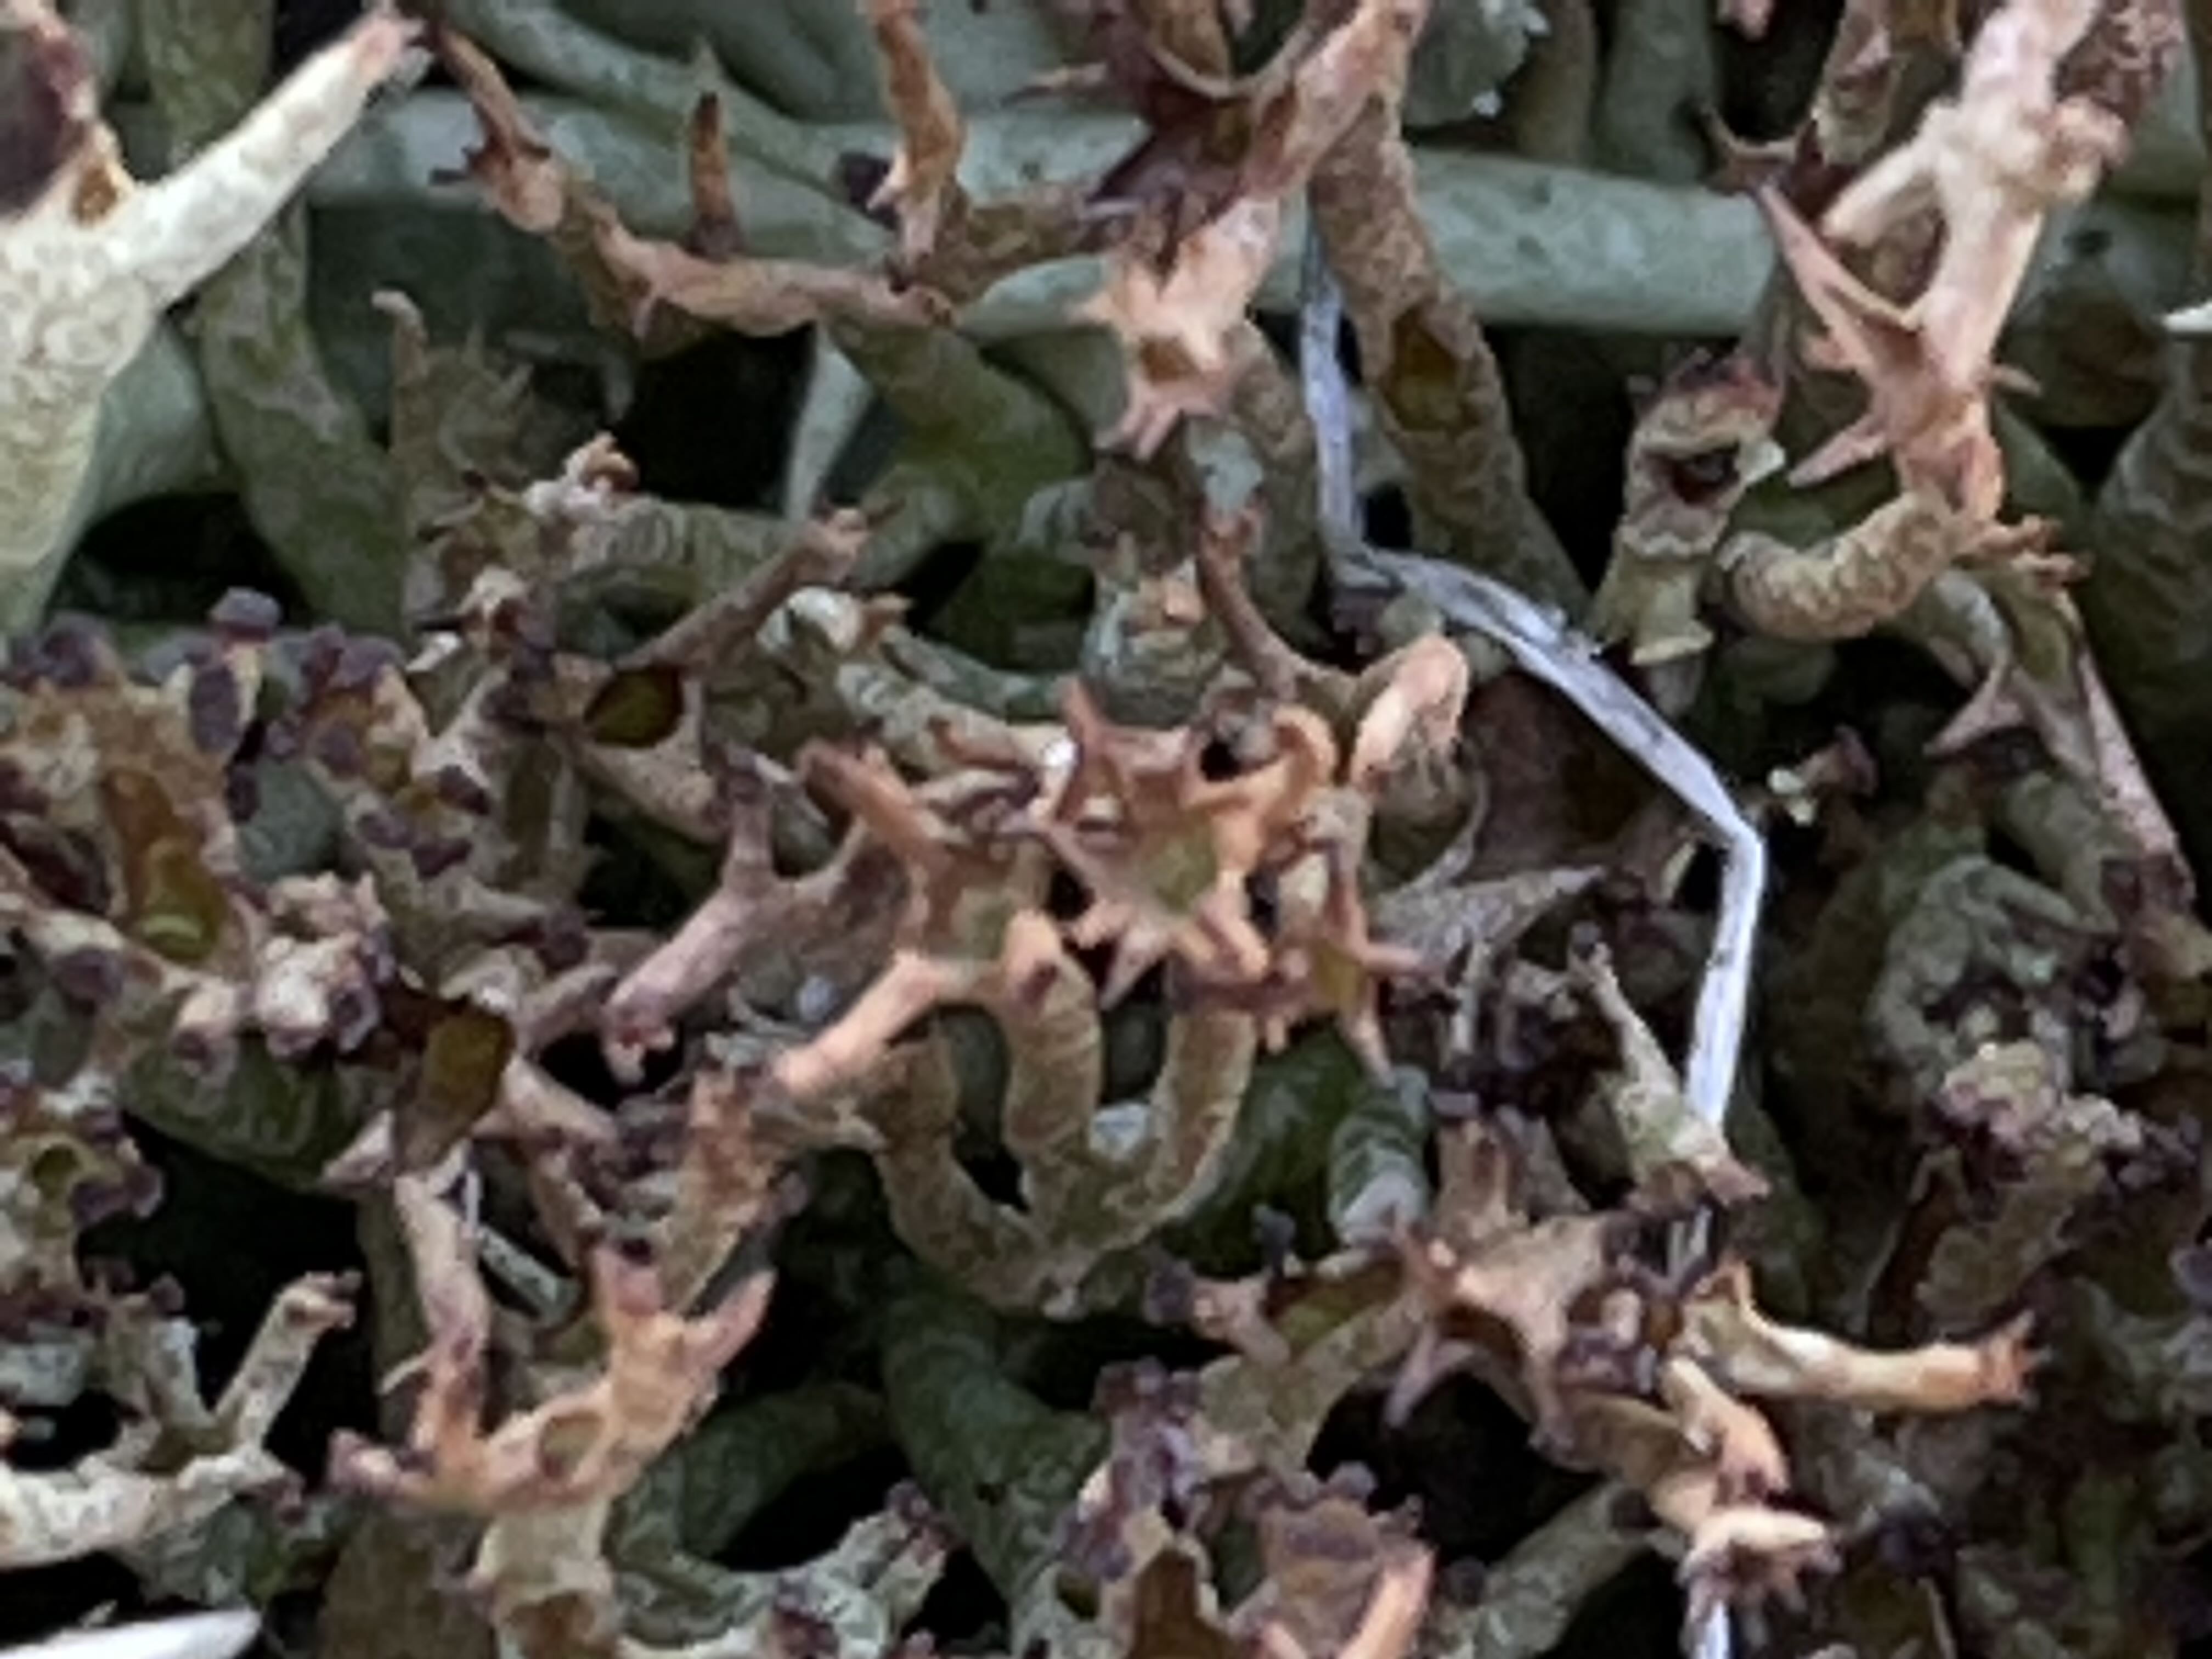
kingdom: Fungi
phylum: Ascomycota
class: Lecanoromycetes
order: Lecanorales
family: Cladoniaceae
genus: Cladonia
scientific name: Cladonia crispata
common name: takket bægerlav
